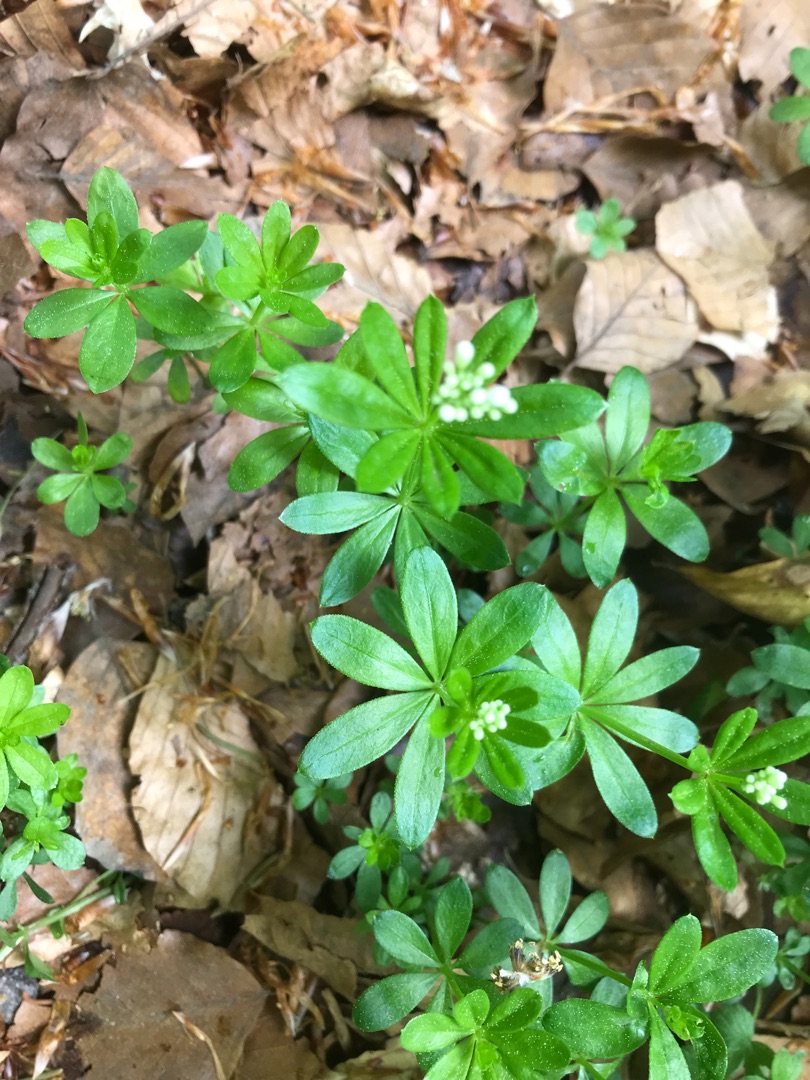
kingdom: Plantae
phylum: Tracheophyta
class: Magnoliopsida
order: Gentianales
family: Rubiaceae
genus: Galium
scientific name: Galium odoratum
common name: Skovmærke
